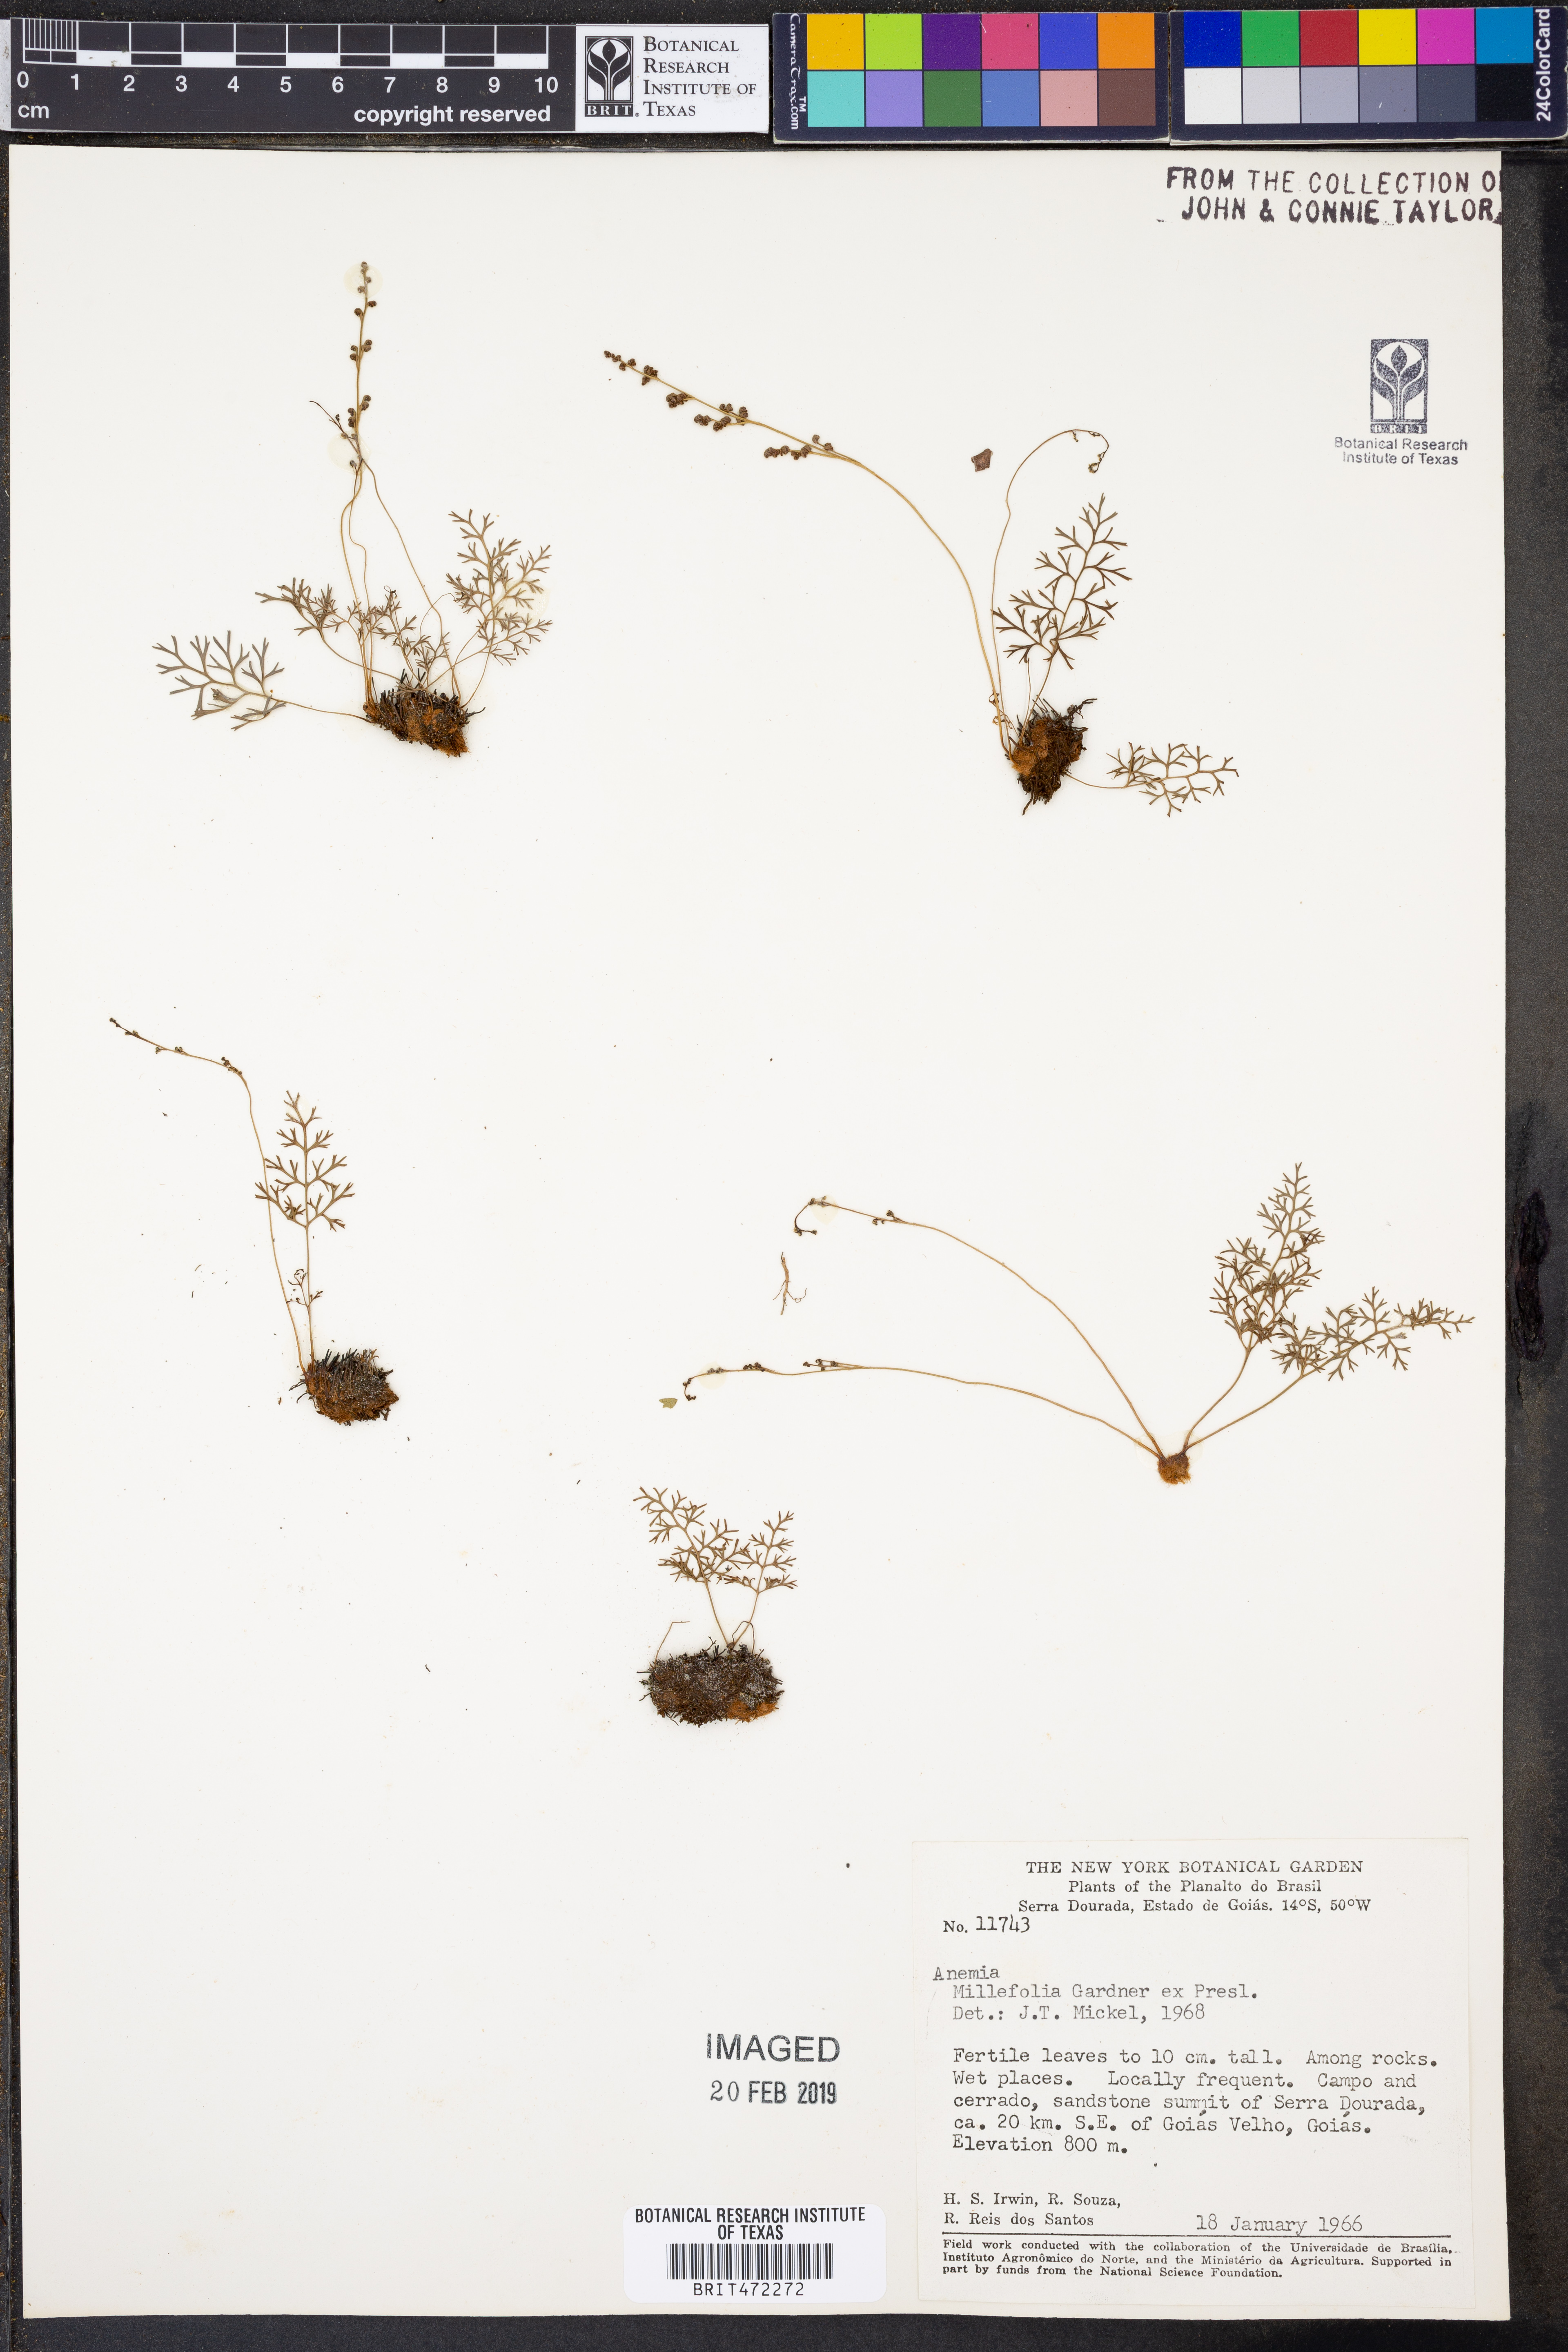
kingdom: Plantae
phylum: Tracheophyta
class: Polypodiopsida
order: Schizaeales
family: Anemiaceae
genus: Anemia
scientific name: Anemia millefolia
